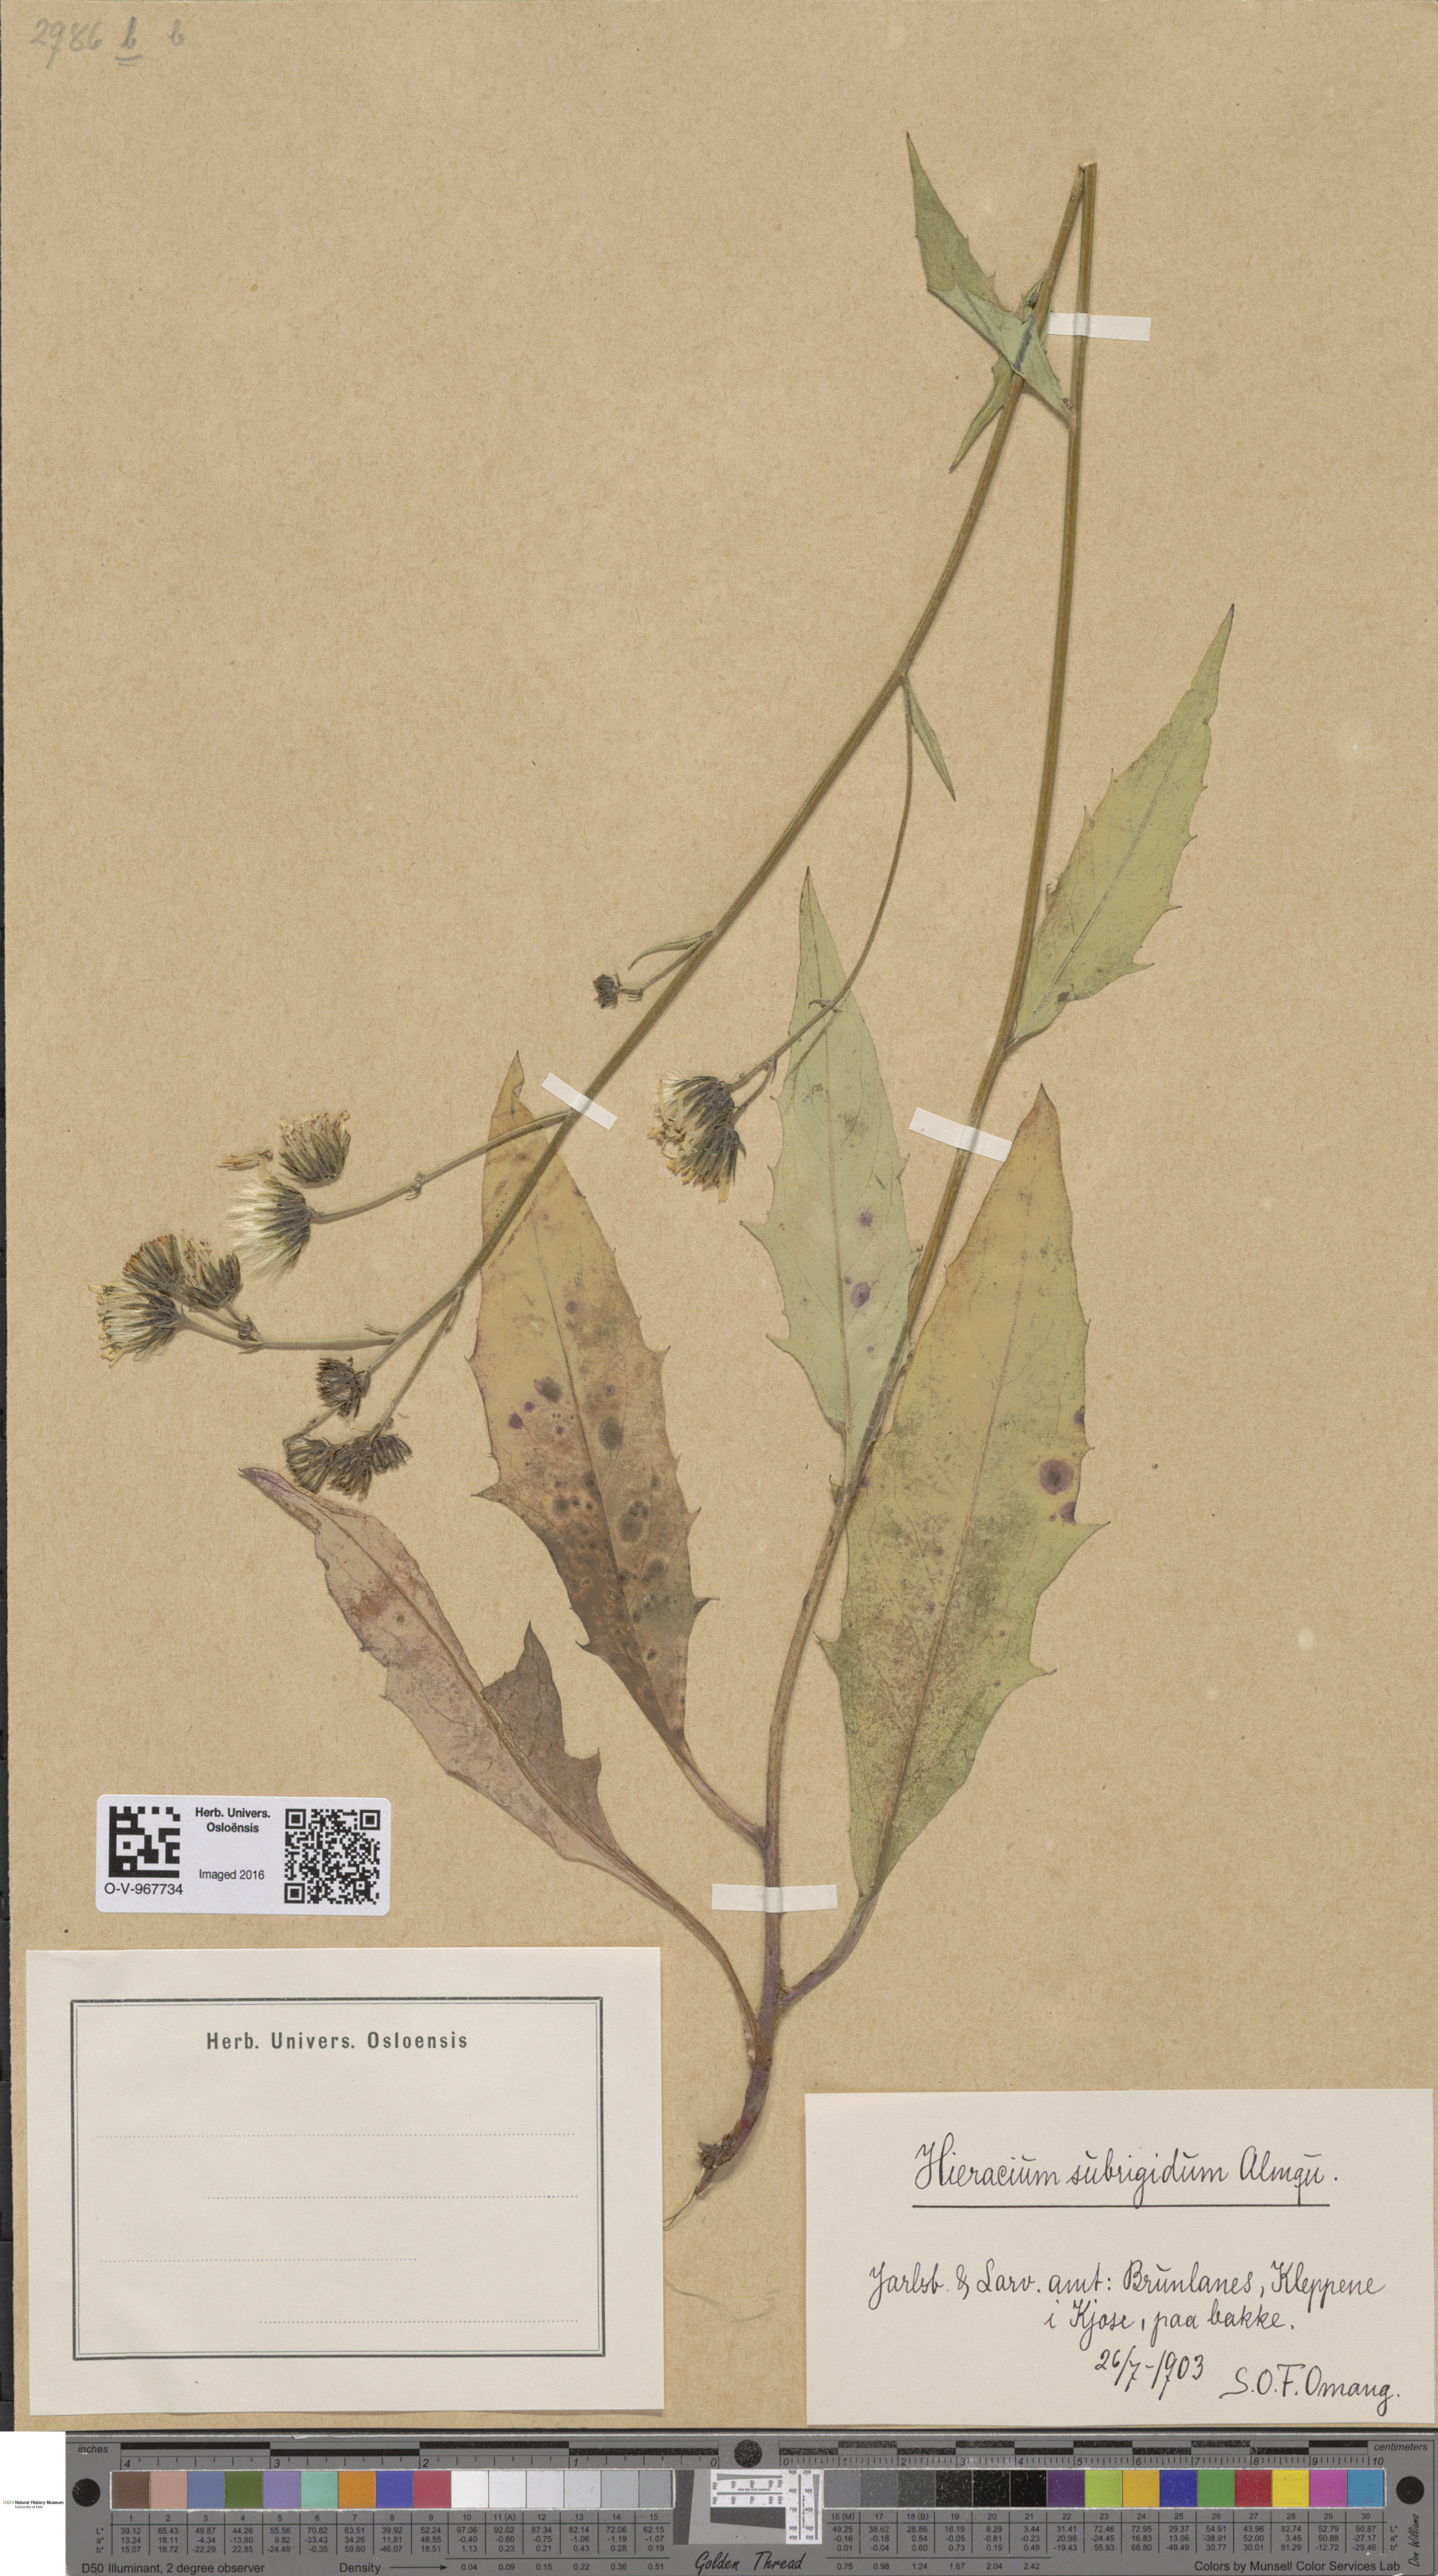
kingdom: Plantae
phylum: Tracheophyta
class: Magnoliopsida
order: Asterales
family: Asteraceae
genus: Hieracium
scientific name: Hieracium subrigidum
